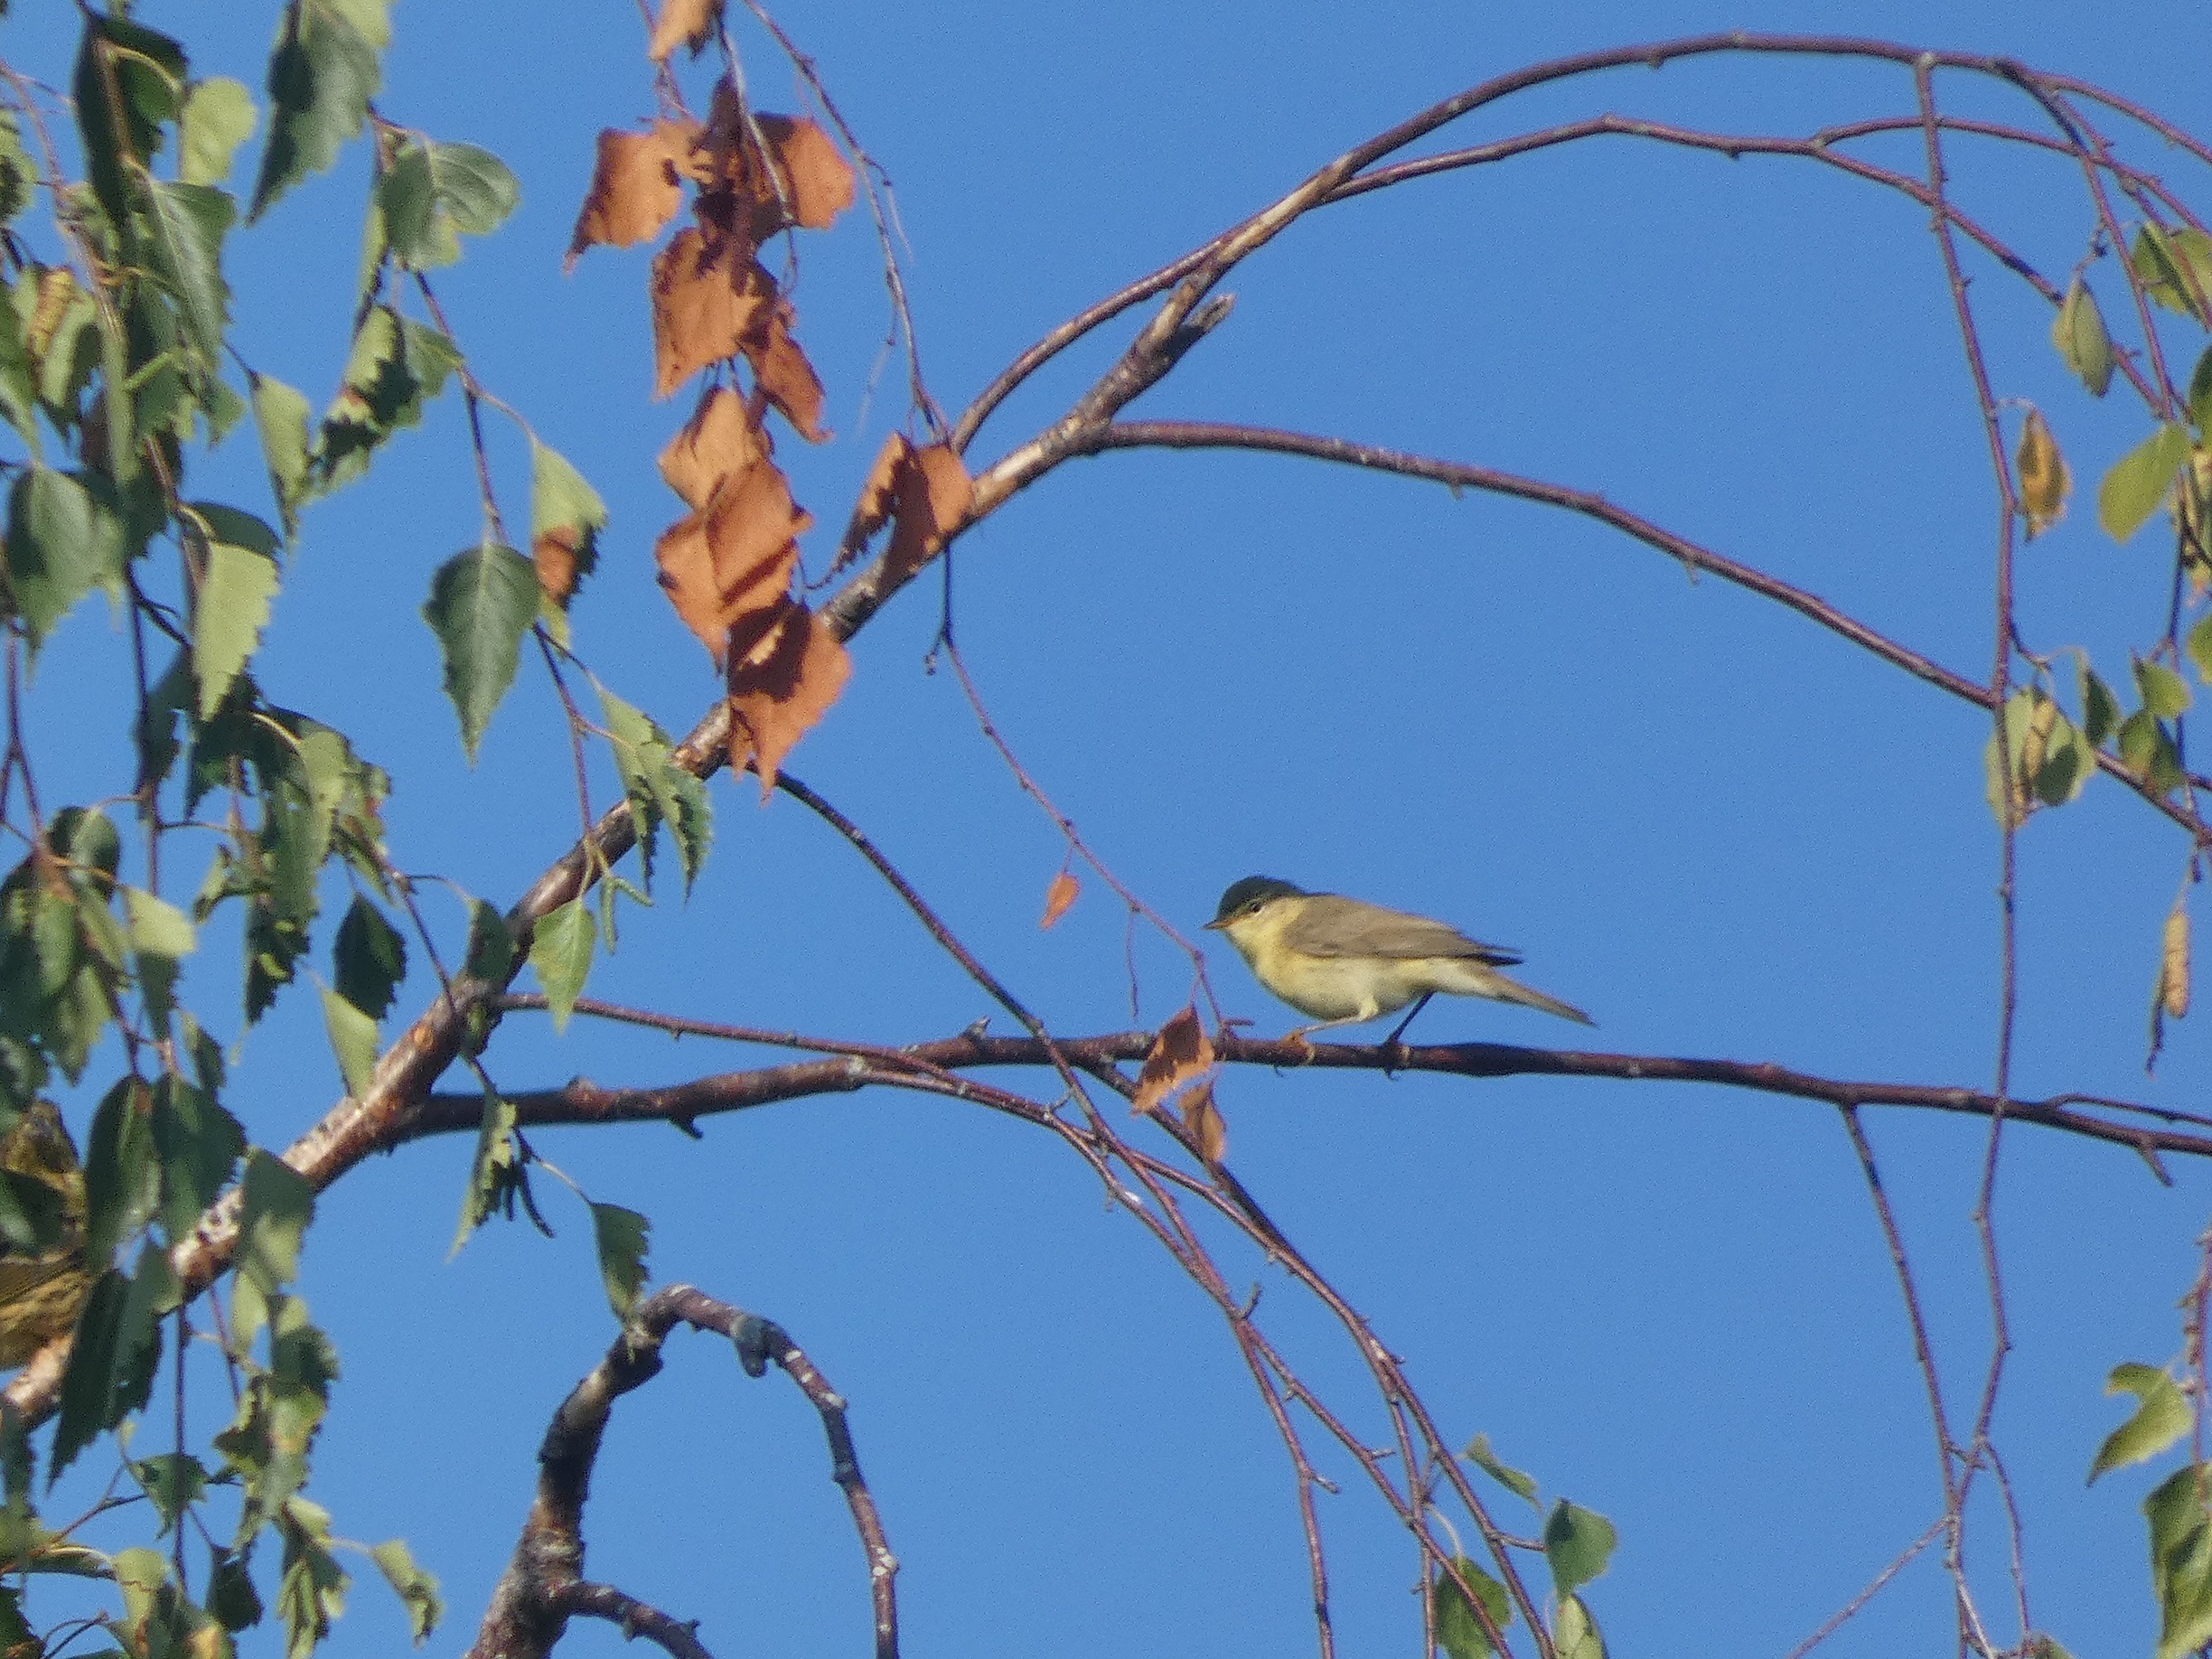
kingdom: Animalia
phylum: Chordata
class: Aves
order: Passeriformes
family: Phylloscopidae
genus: Phylloscopus
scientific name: Phylloscopus trochilus
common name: Løvsanger
